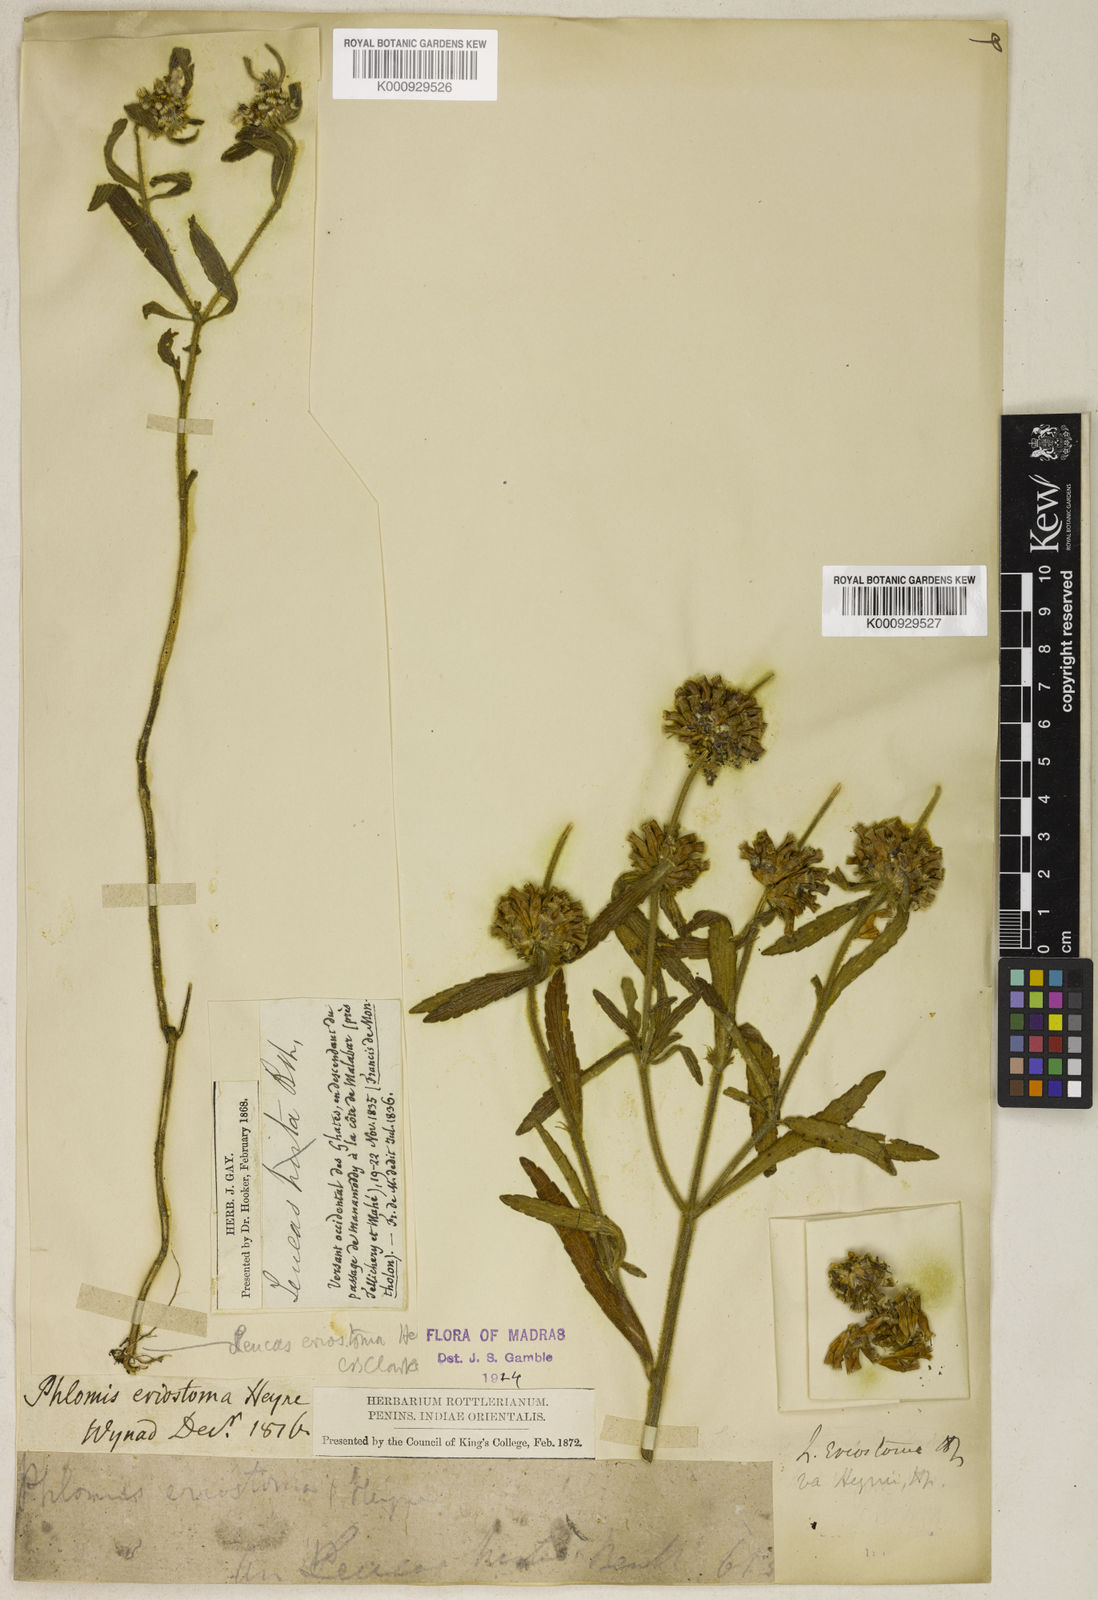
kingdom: Plantae
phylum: Tracheophyta
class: Magnoliopsida
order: Lamiales
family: Lamiaceae
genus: Leucas
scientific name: Leucas eriostoma
